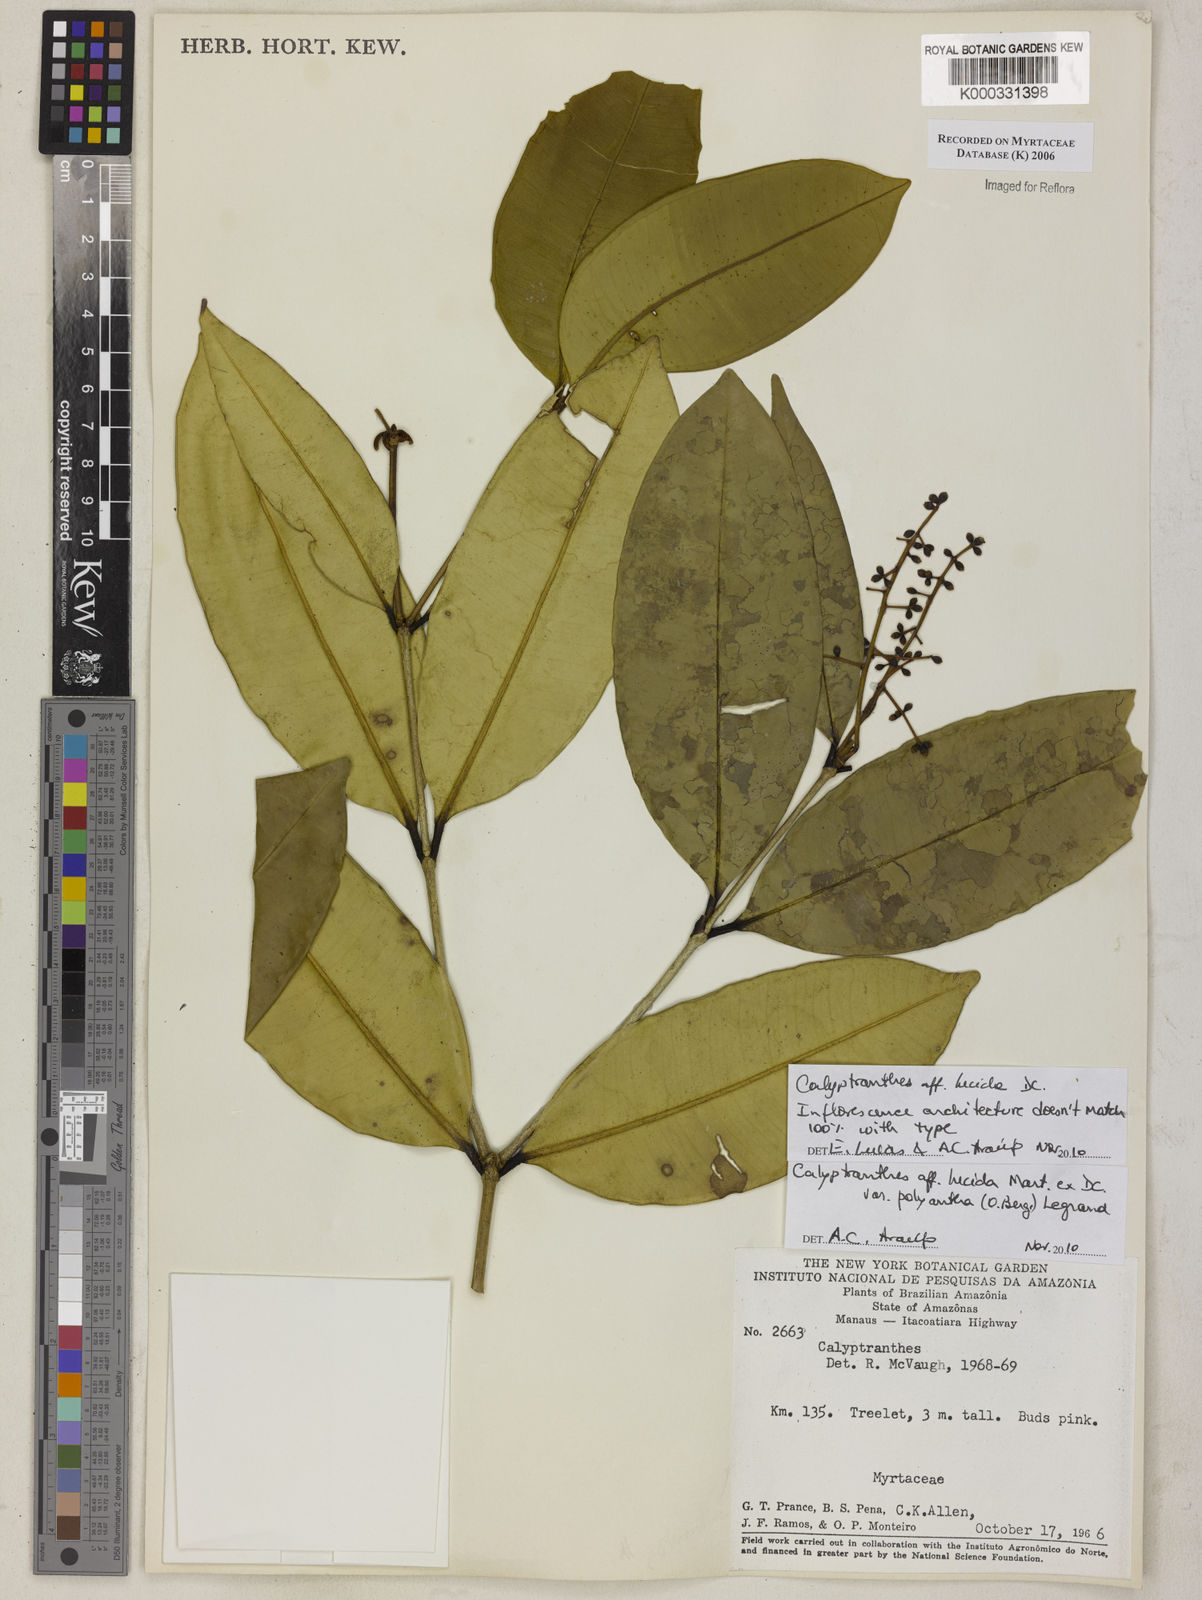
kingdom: Plantae
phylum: Tracheophyta
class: Magnoliopsida
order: Myrtales
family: Myrtaceae
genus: Calyptranthes
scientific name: Calyptranthes
